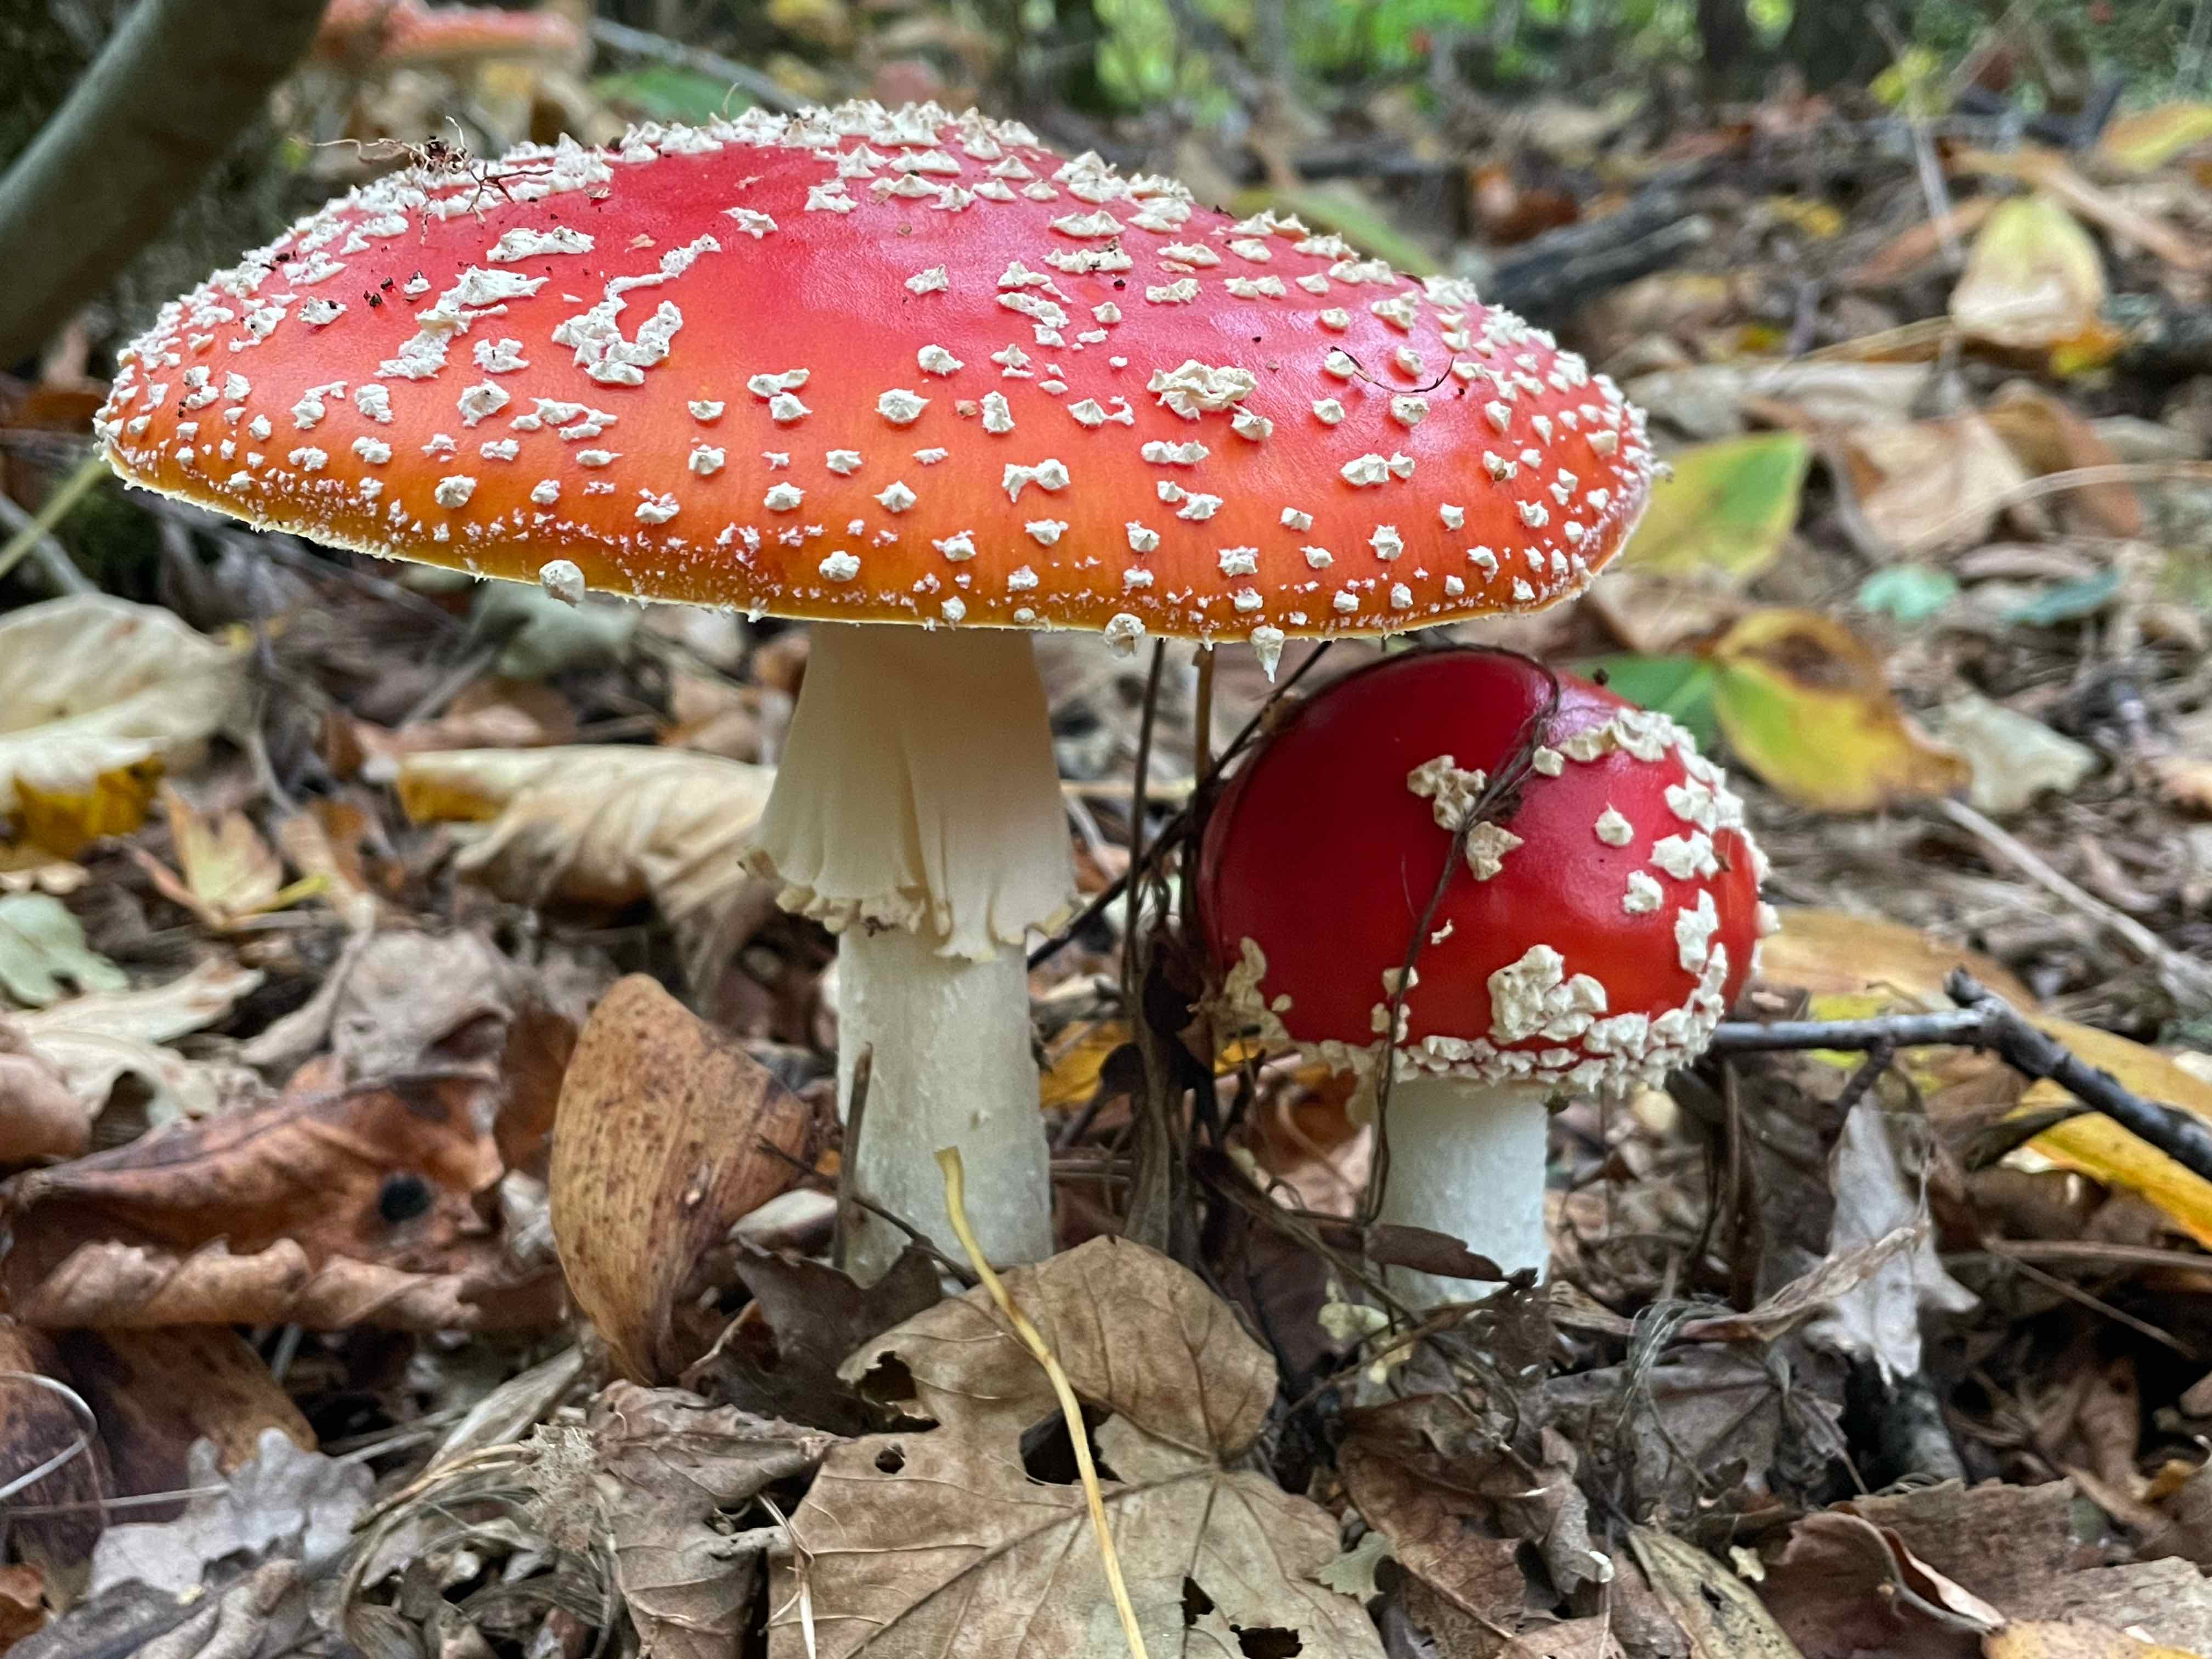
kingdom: Fungi
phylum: Basidiomycota
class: Agaricomycetes
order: Agaricales
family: Amanitaceae
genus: Amanita
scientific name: Amanita muscaria
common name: rød fluesvamp
